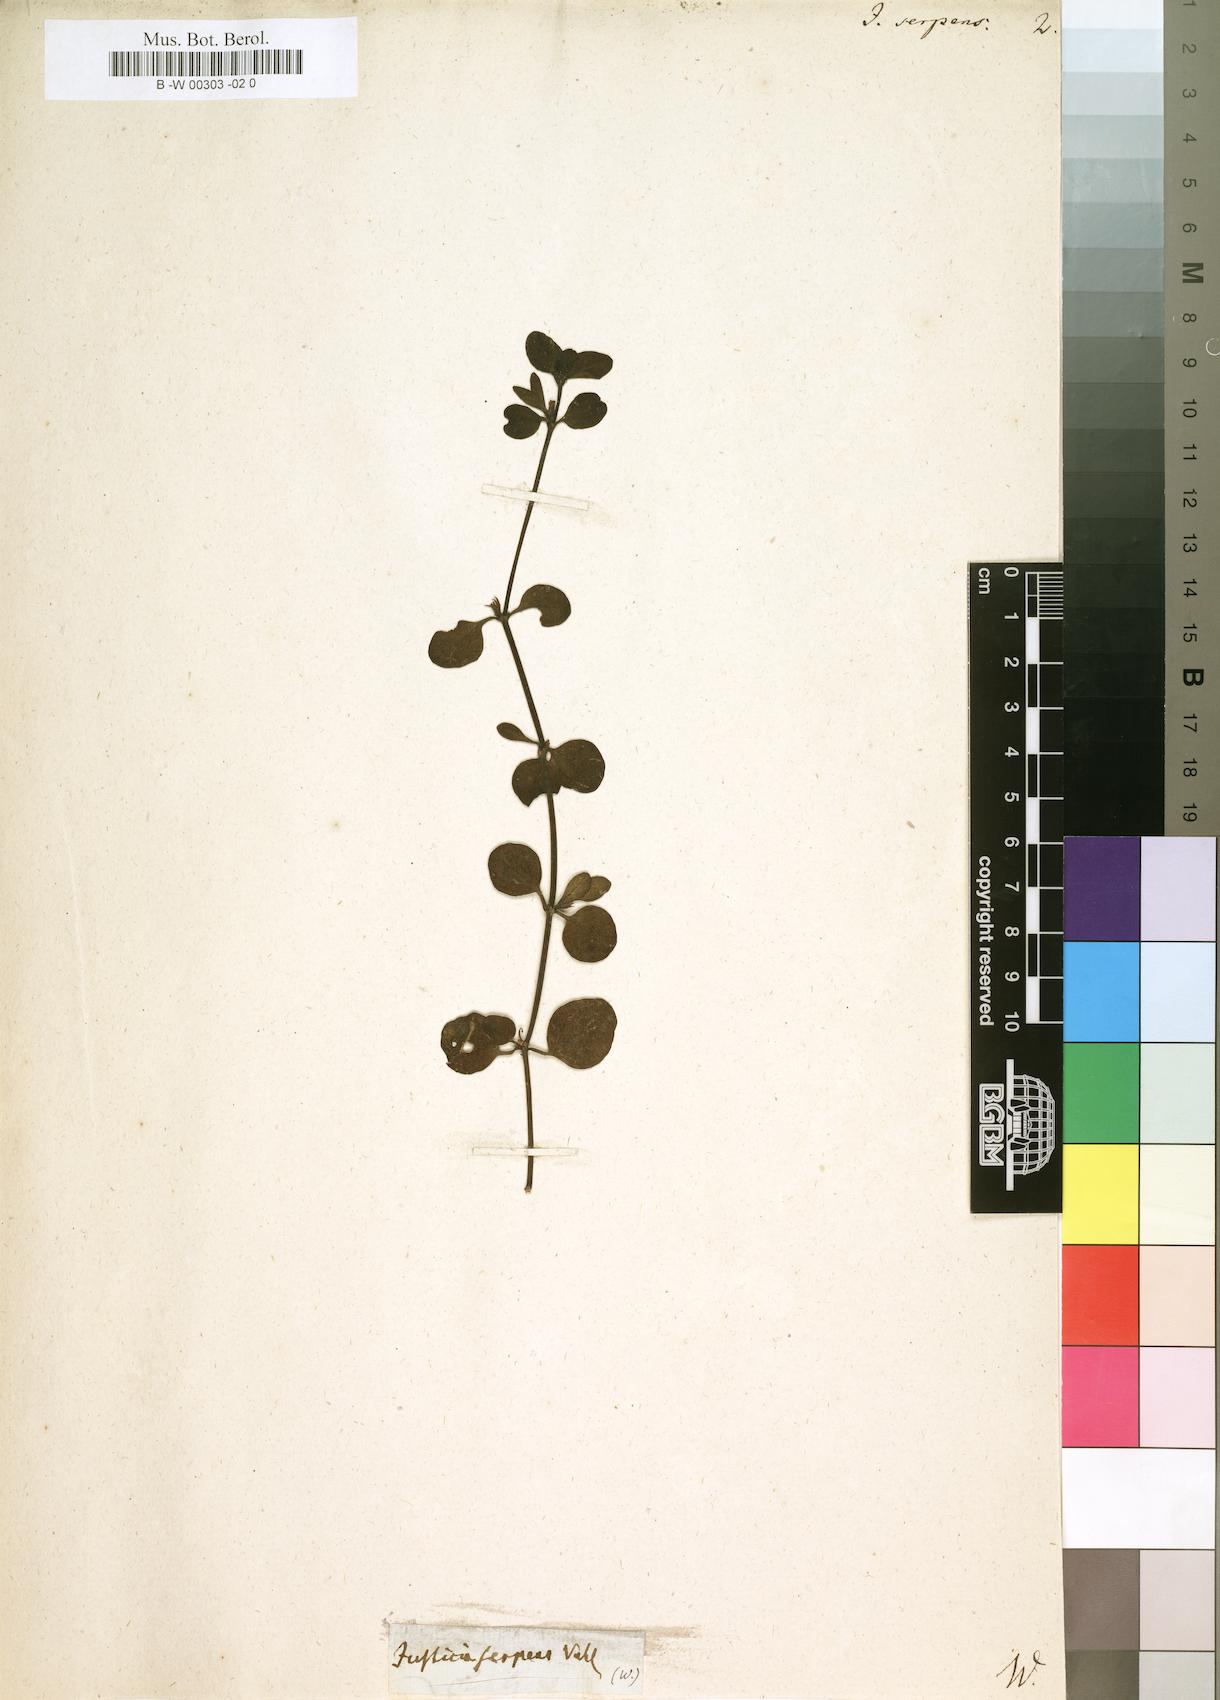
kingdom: Plantae
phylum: Tracheophyta
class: Magnoliopsida
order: Lamiales
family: Acanthaceae
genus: Hypoestes
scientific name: Hypoestes serpens
